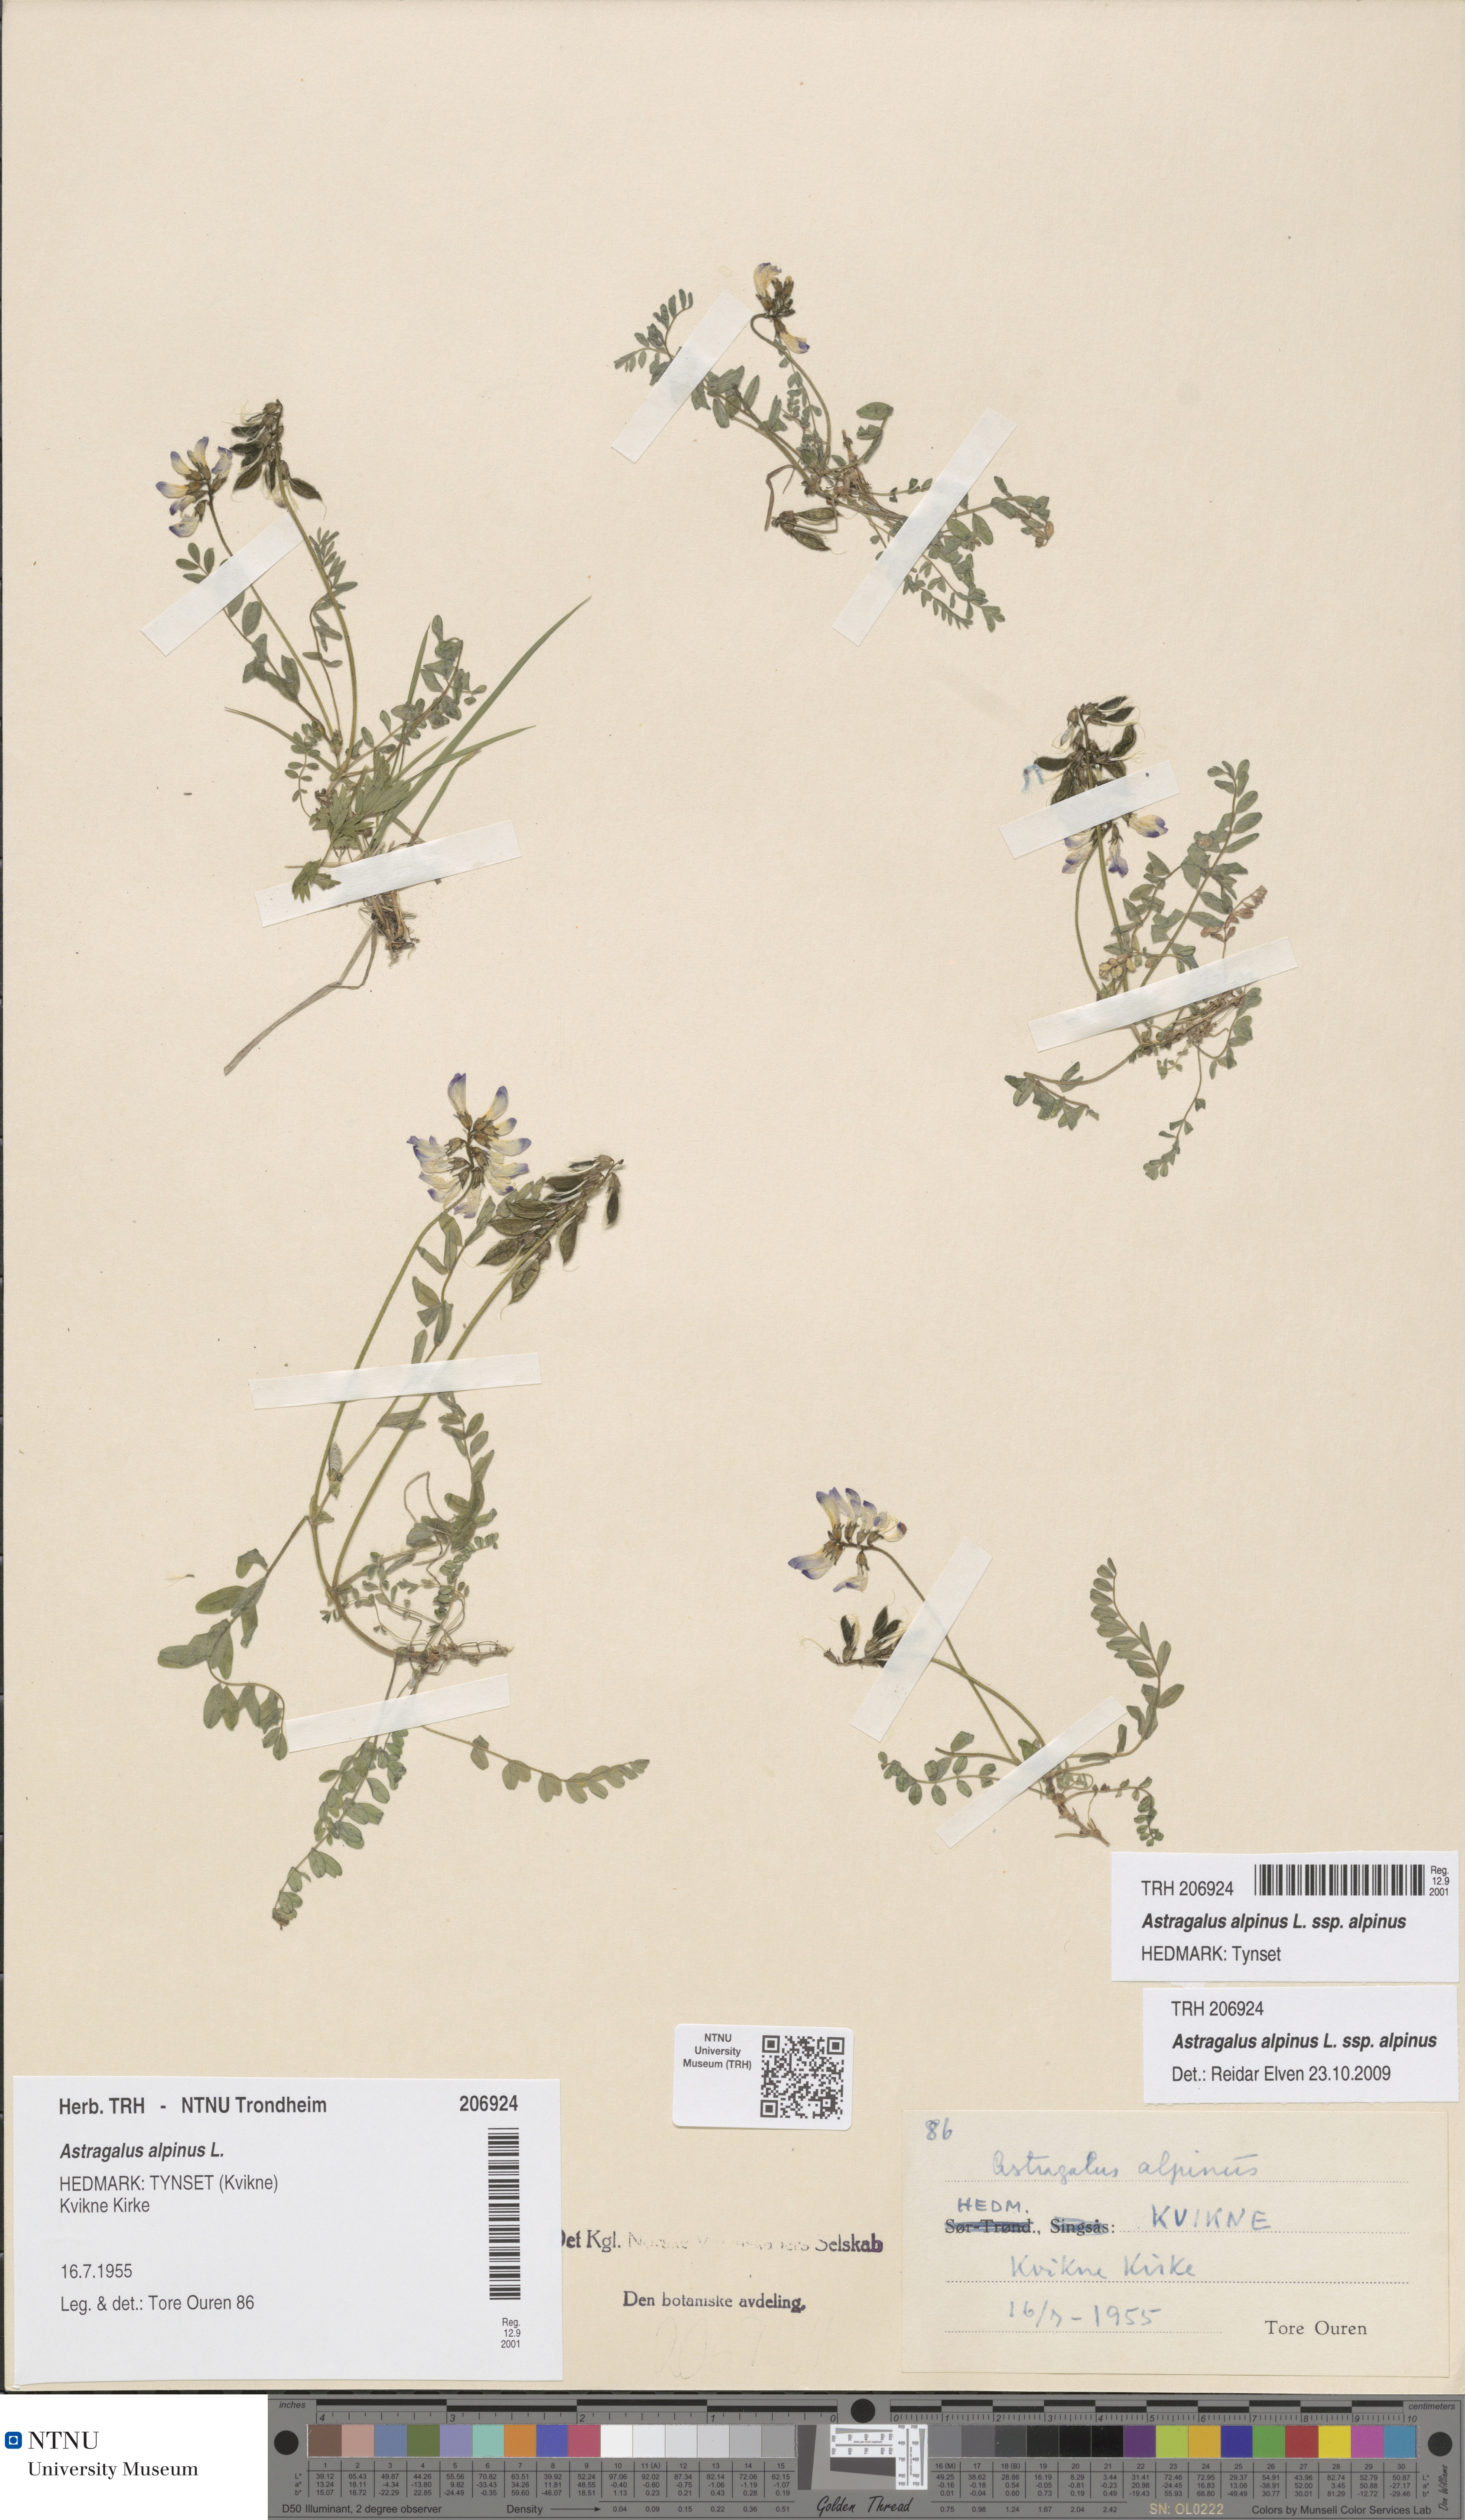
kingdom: Plantae
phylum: Tracheophyta
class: Magnoliopsida
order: Fabales
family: Fabaceae
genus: Astragalus
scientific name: Astragalus alpinus
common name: Alpine milk-vetch
